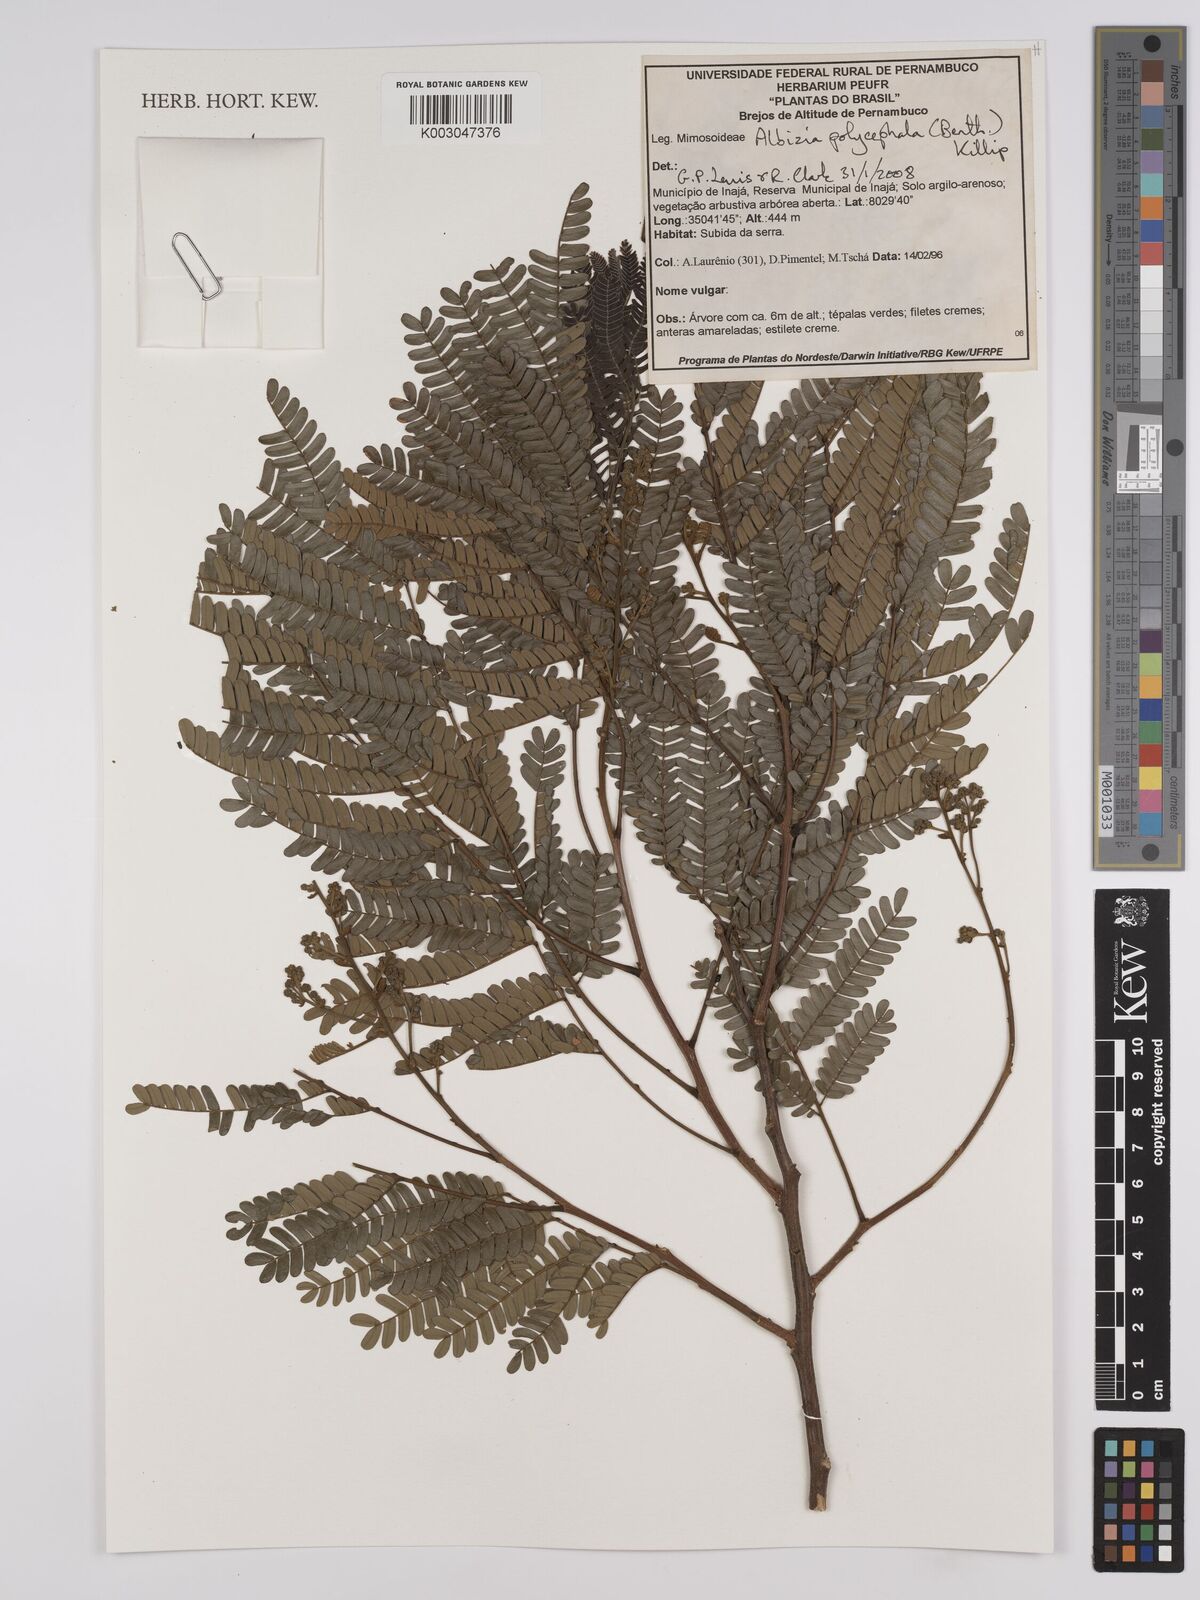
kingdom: Plantae
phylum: Tracheophyta
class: Magnoliopsida
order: Fabales
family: Fabaceae
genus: Albizia
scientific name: Albizia polycephala
